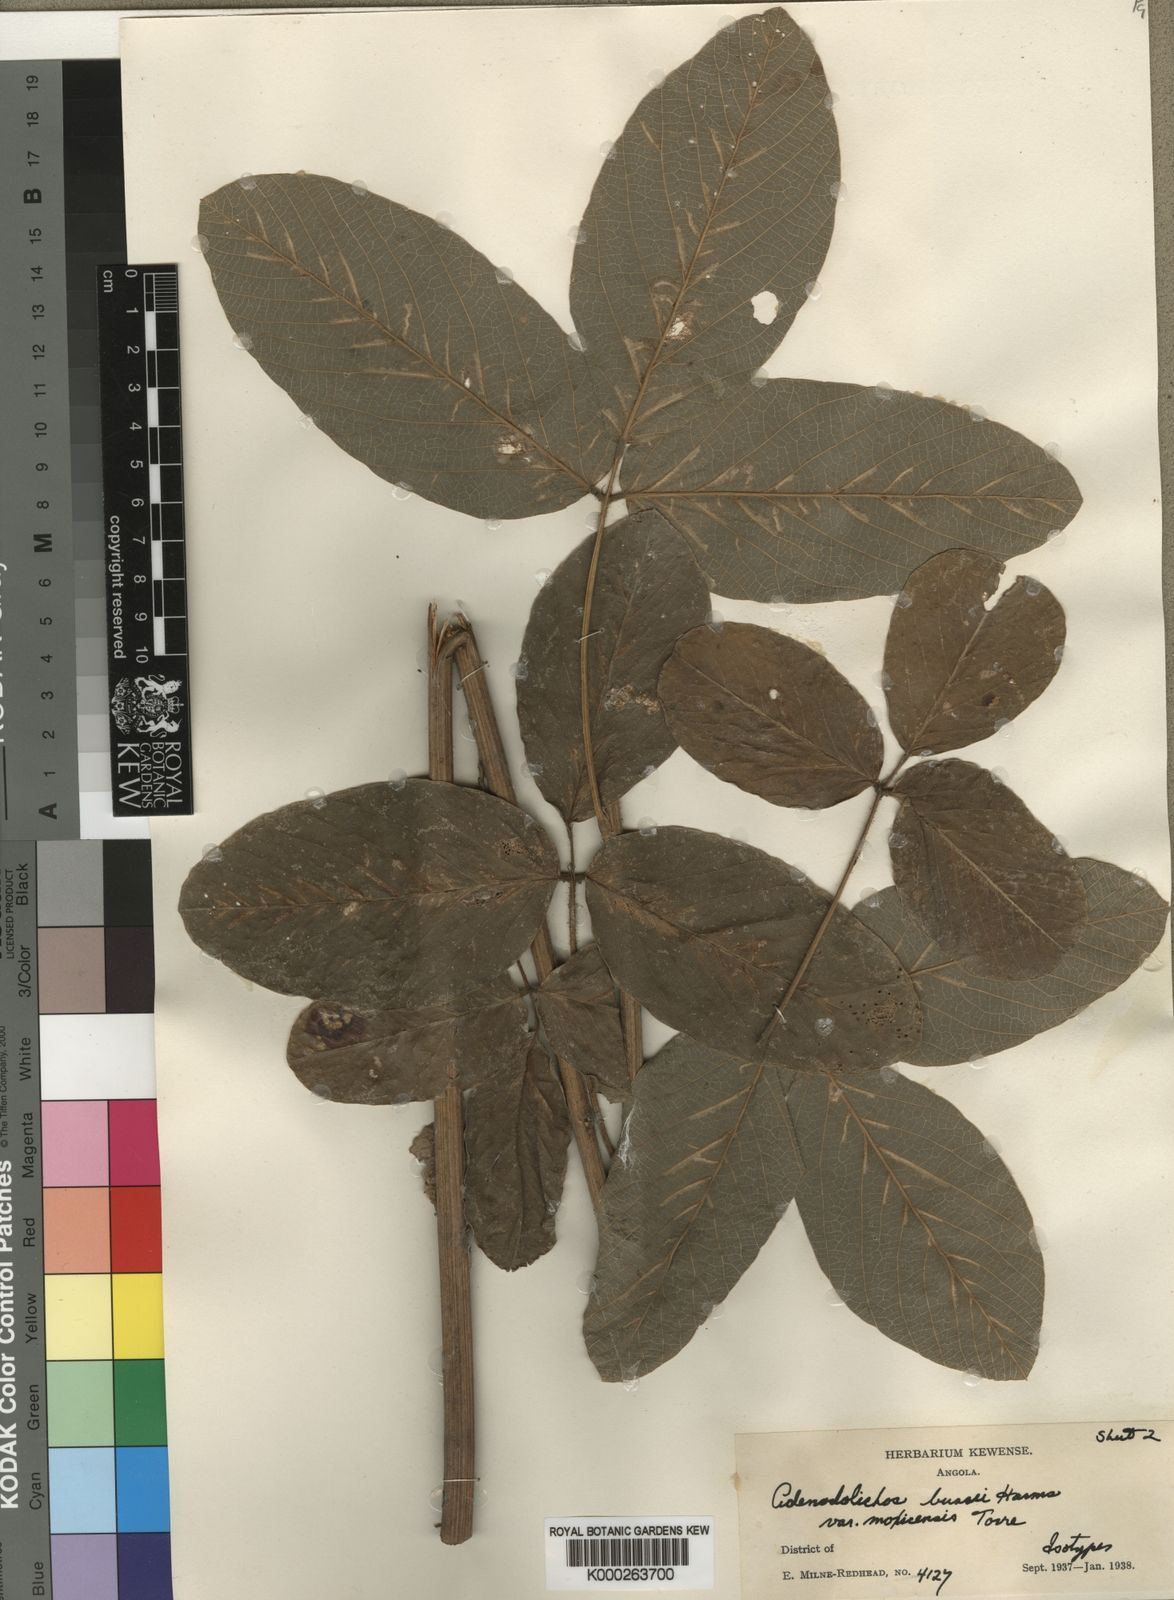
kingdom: Plantae
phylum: Tracheophyta
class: Magnoliopsida
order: Fabales
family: Fabaceae
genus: Adenodolichos
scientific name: Adenodolichos punctatus
